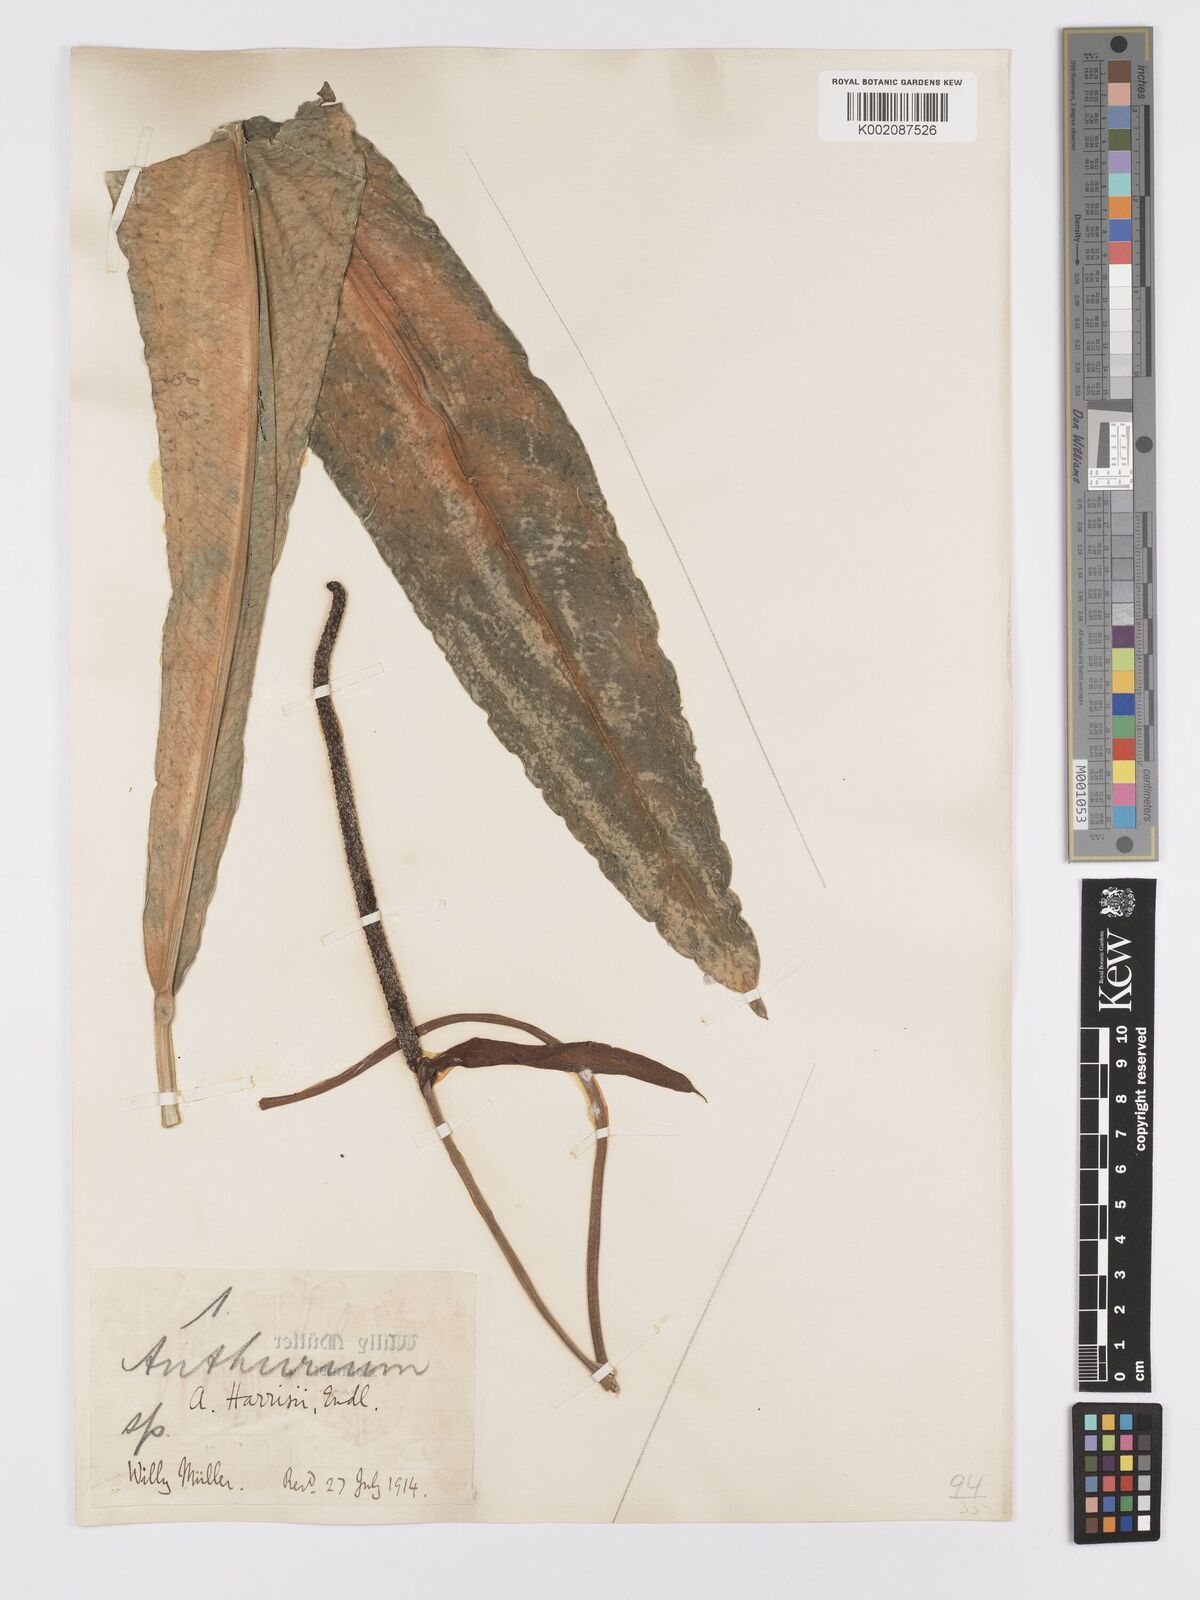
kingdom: Plantae
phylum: Tracheophyta
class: Liliopsida
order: Alismatales
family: Araceae
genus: Anthurium
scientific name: Anthurium intermedium
